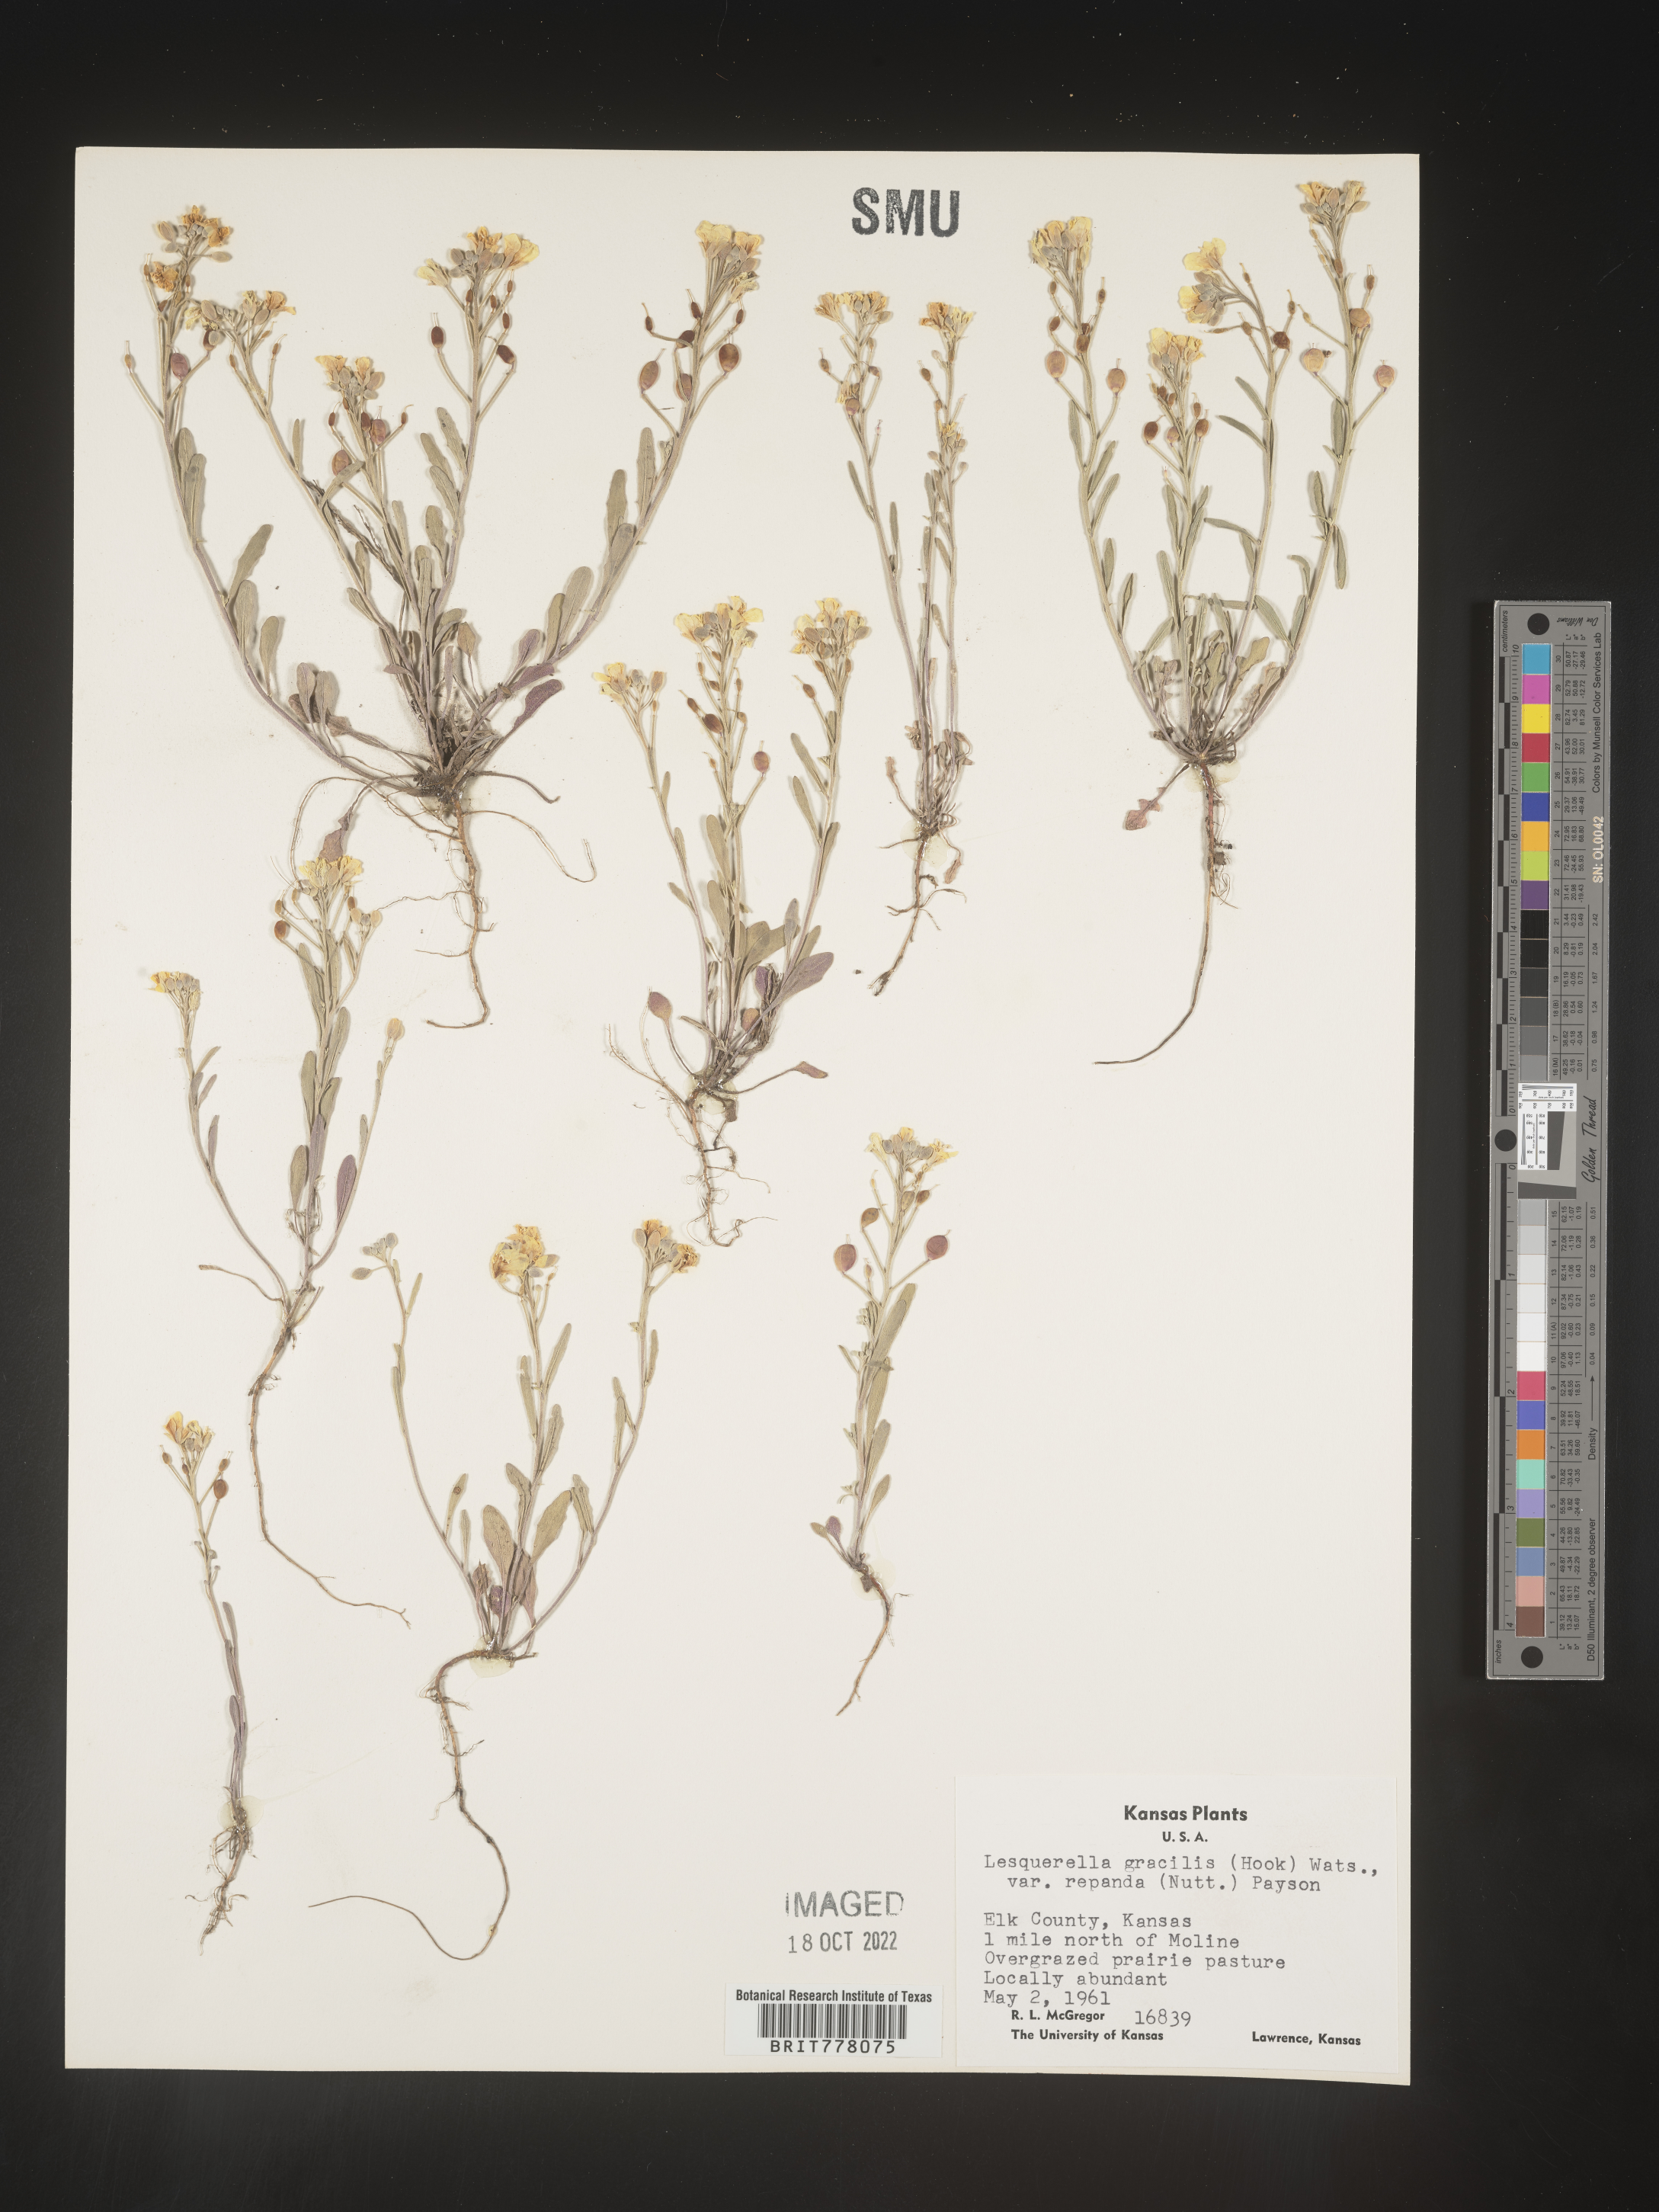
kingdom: Chromista
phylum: Cercozoa
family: Psammonobiotidae
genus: Lesquerella
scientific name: Lesquerella
